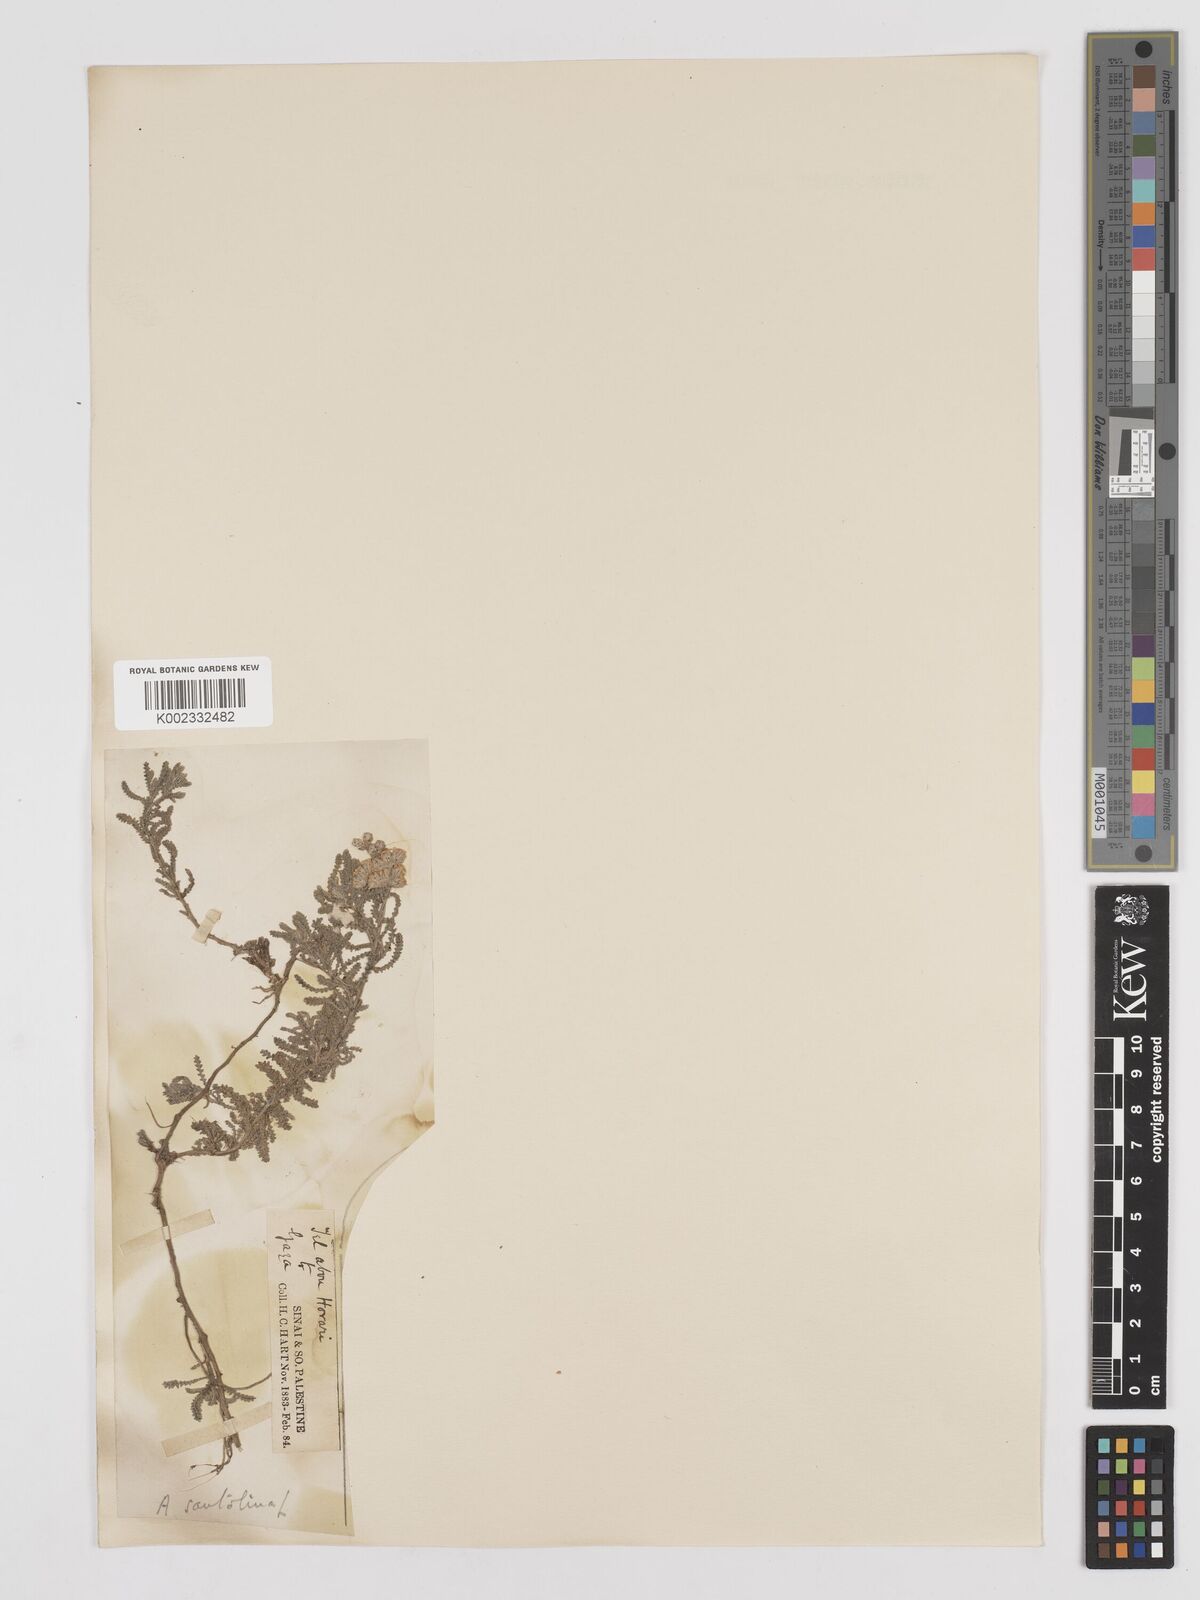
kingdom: Plantae
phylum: Tracheophyta
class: Magnoliopsida
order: Asterales
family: Asteraceae
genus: Achillea
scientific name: Achillea tenuifolia
